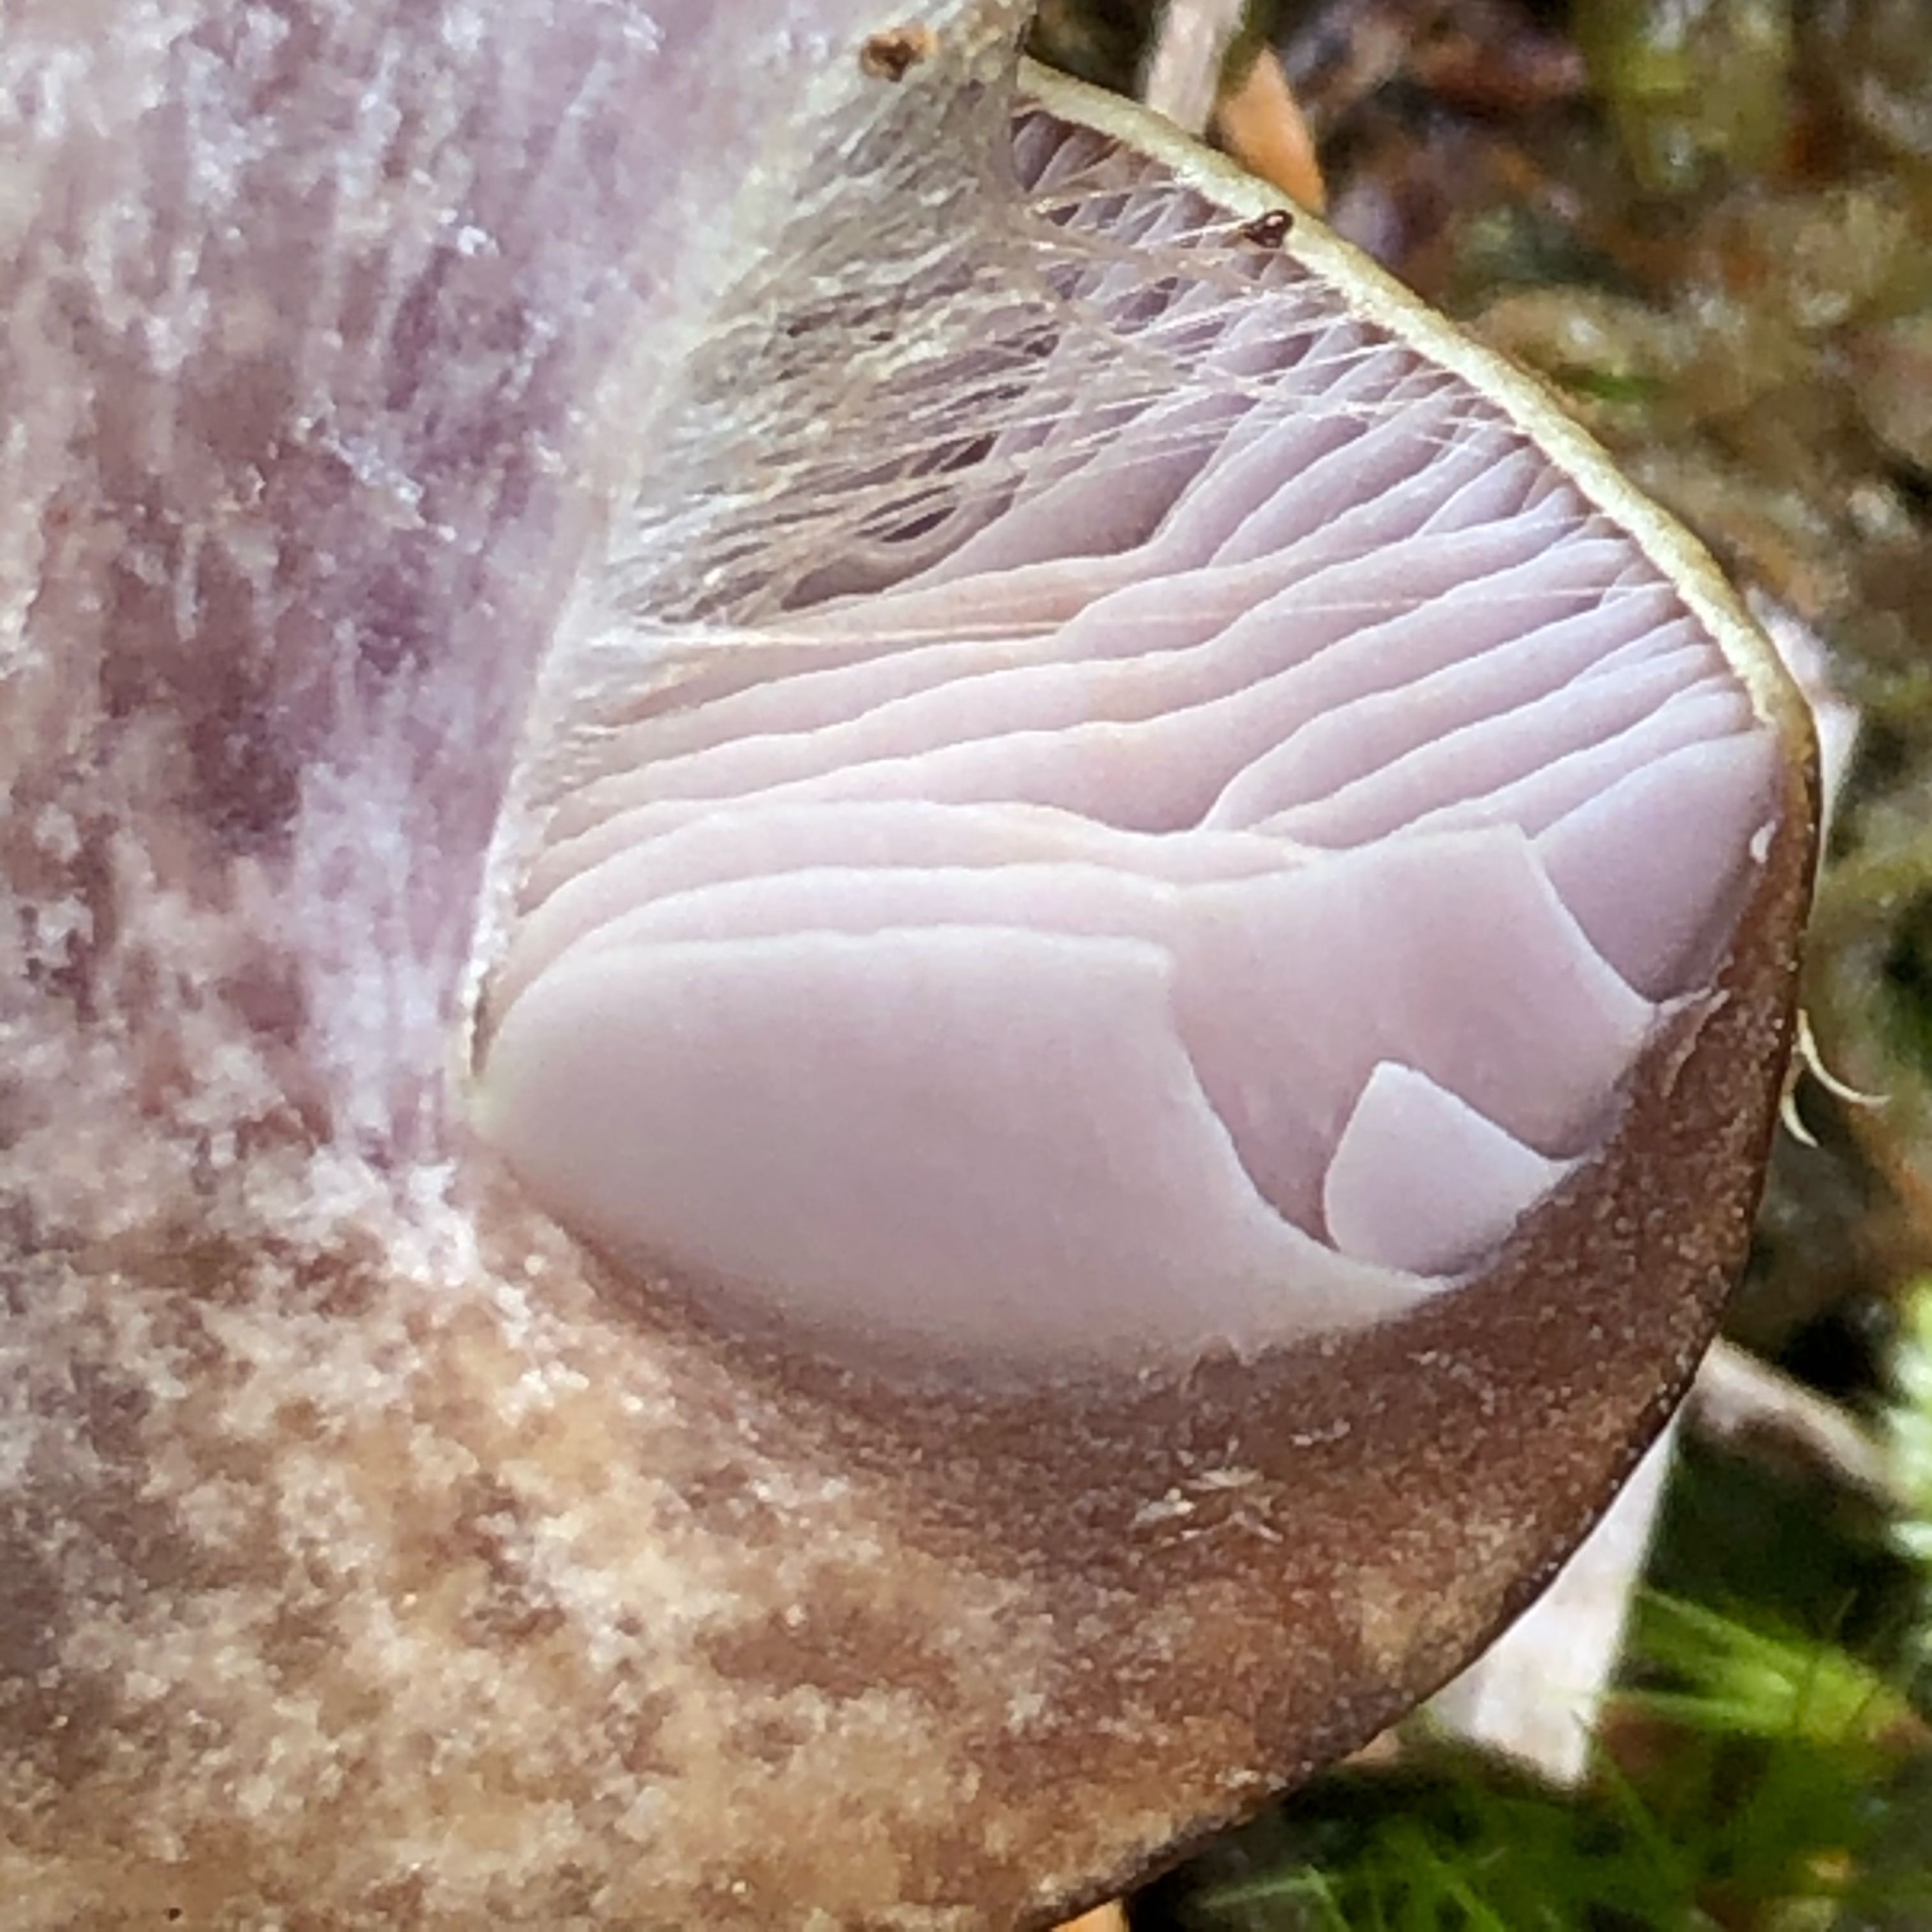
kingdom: Fungi
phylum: Basidiomycota
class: Agaricomycetes
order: Agaricales
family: Cortinariaceae
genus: Thaxterogaster
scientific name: Thaxterogaster sphagnophilus
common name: vandplettet slørhat
